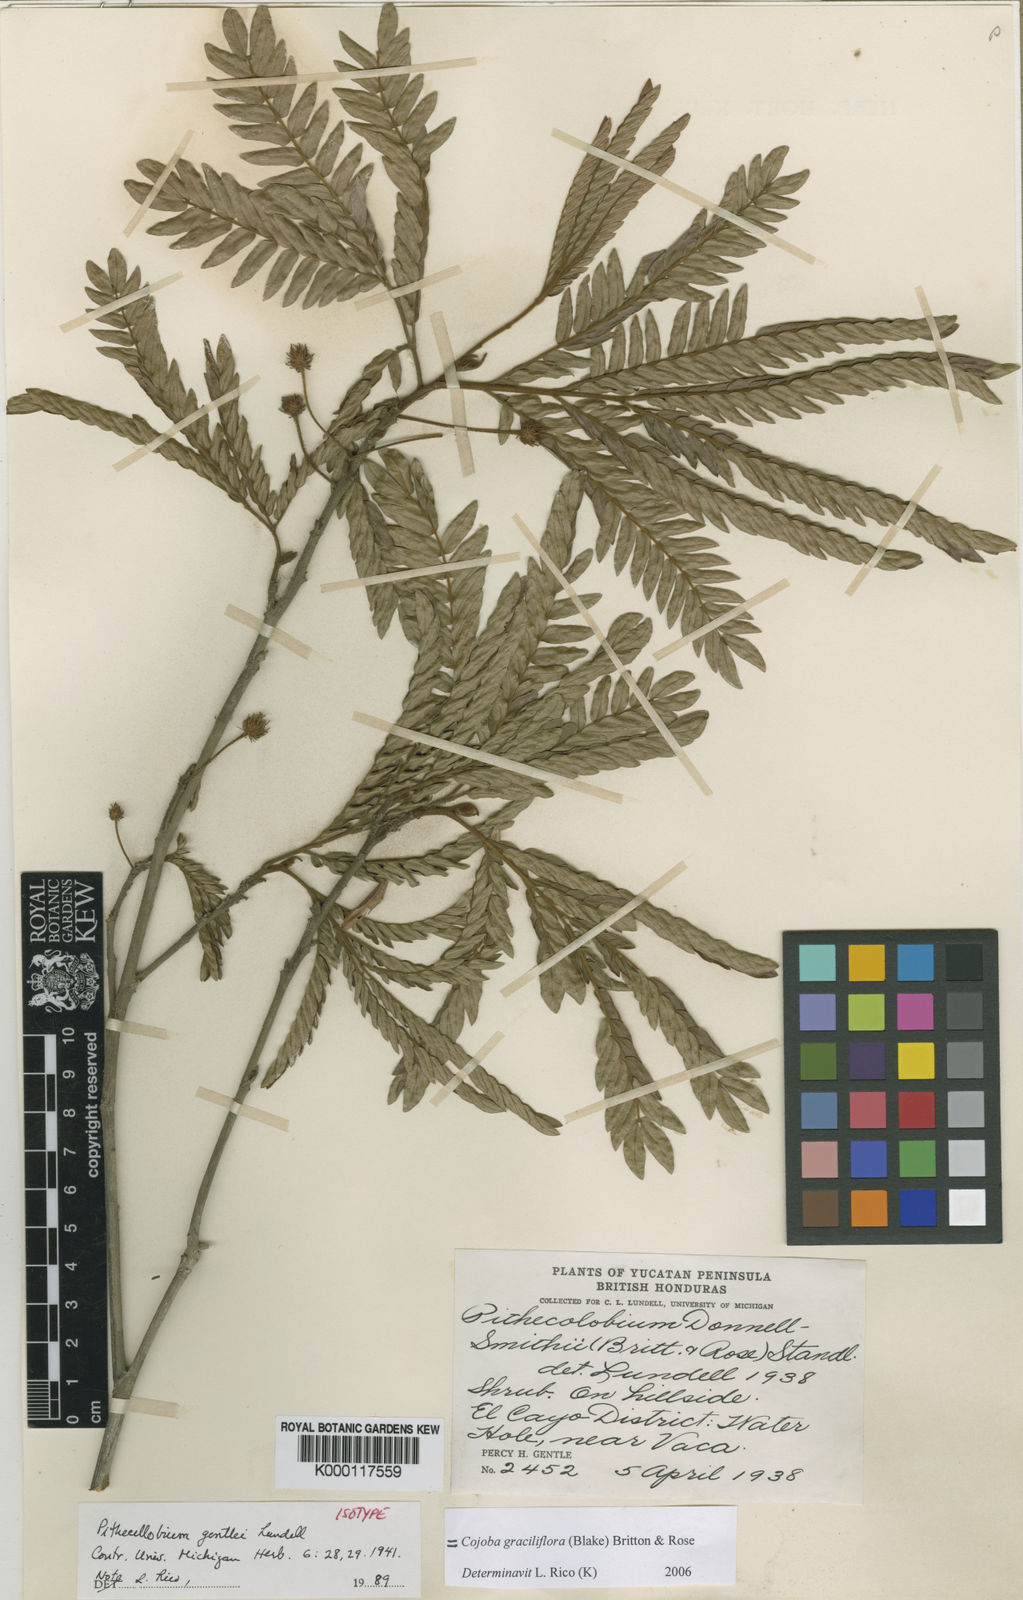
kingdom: Plantae
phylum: Tracheophyta
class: Magnoliopsida
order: Fabales
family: Fabaceae
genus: Cojoba
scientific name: Cojoba graciliflora
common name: Guadeloupe blackbead
